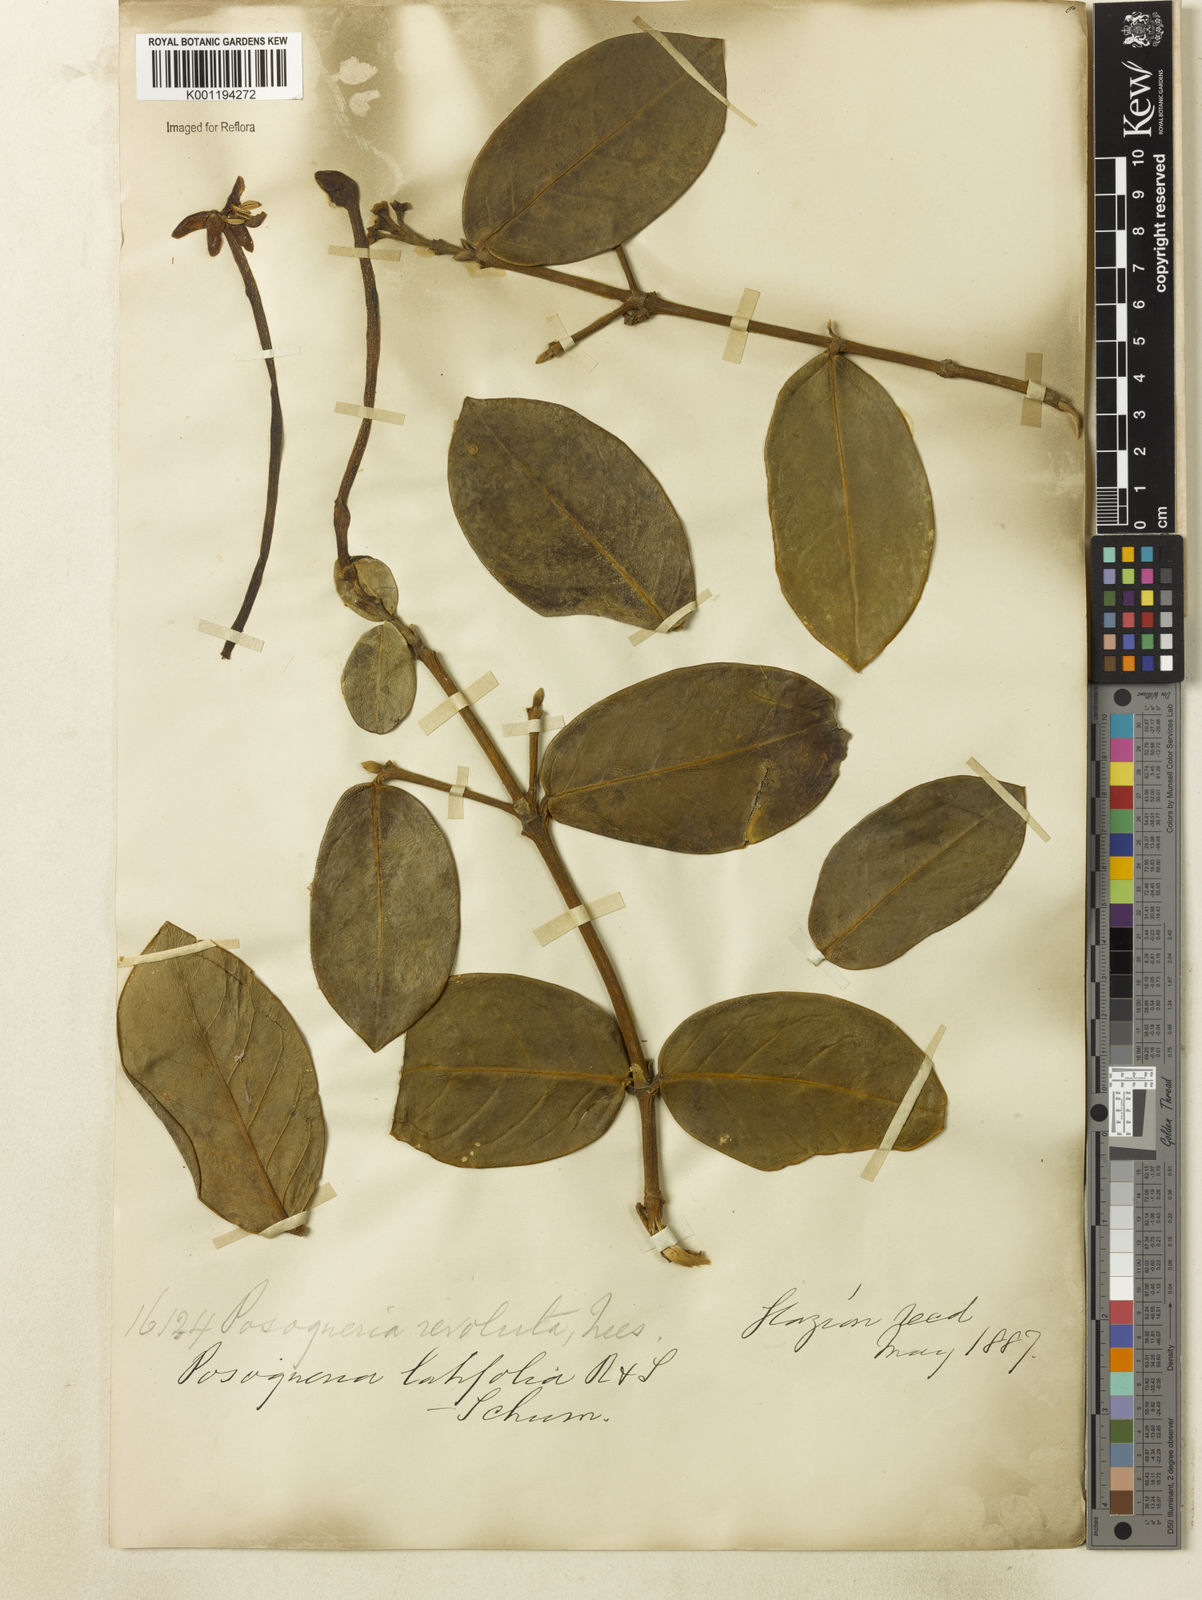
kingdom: Plantae
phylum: Tracheophyta
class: Magnoliopsida
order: Gentianales
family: Rubiaceae
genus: Posoqueria
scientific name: Posoqueria latifolia
